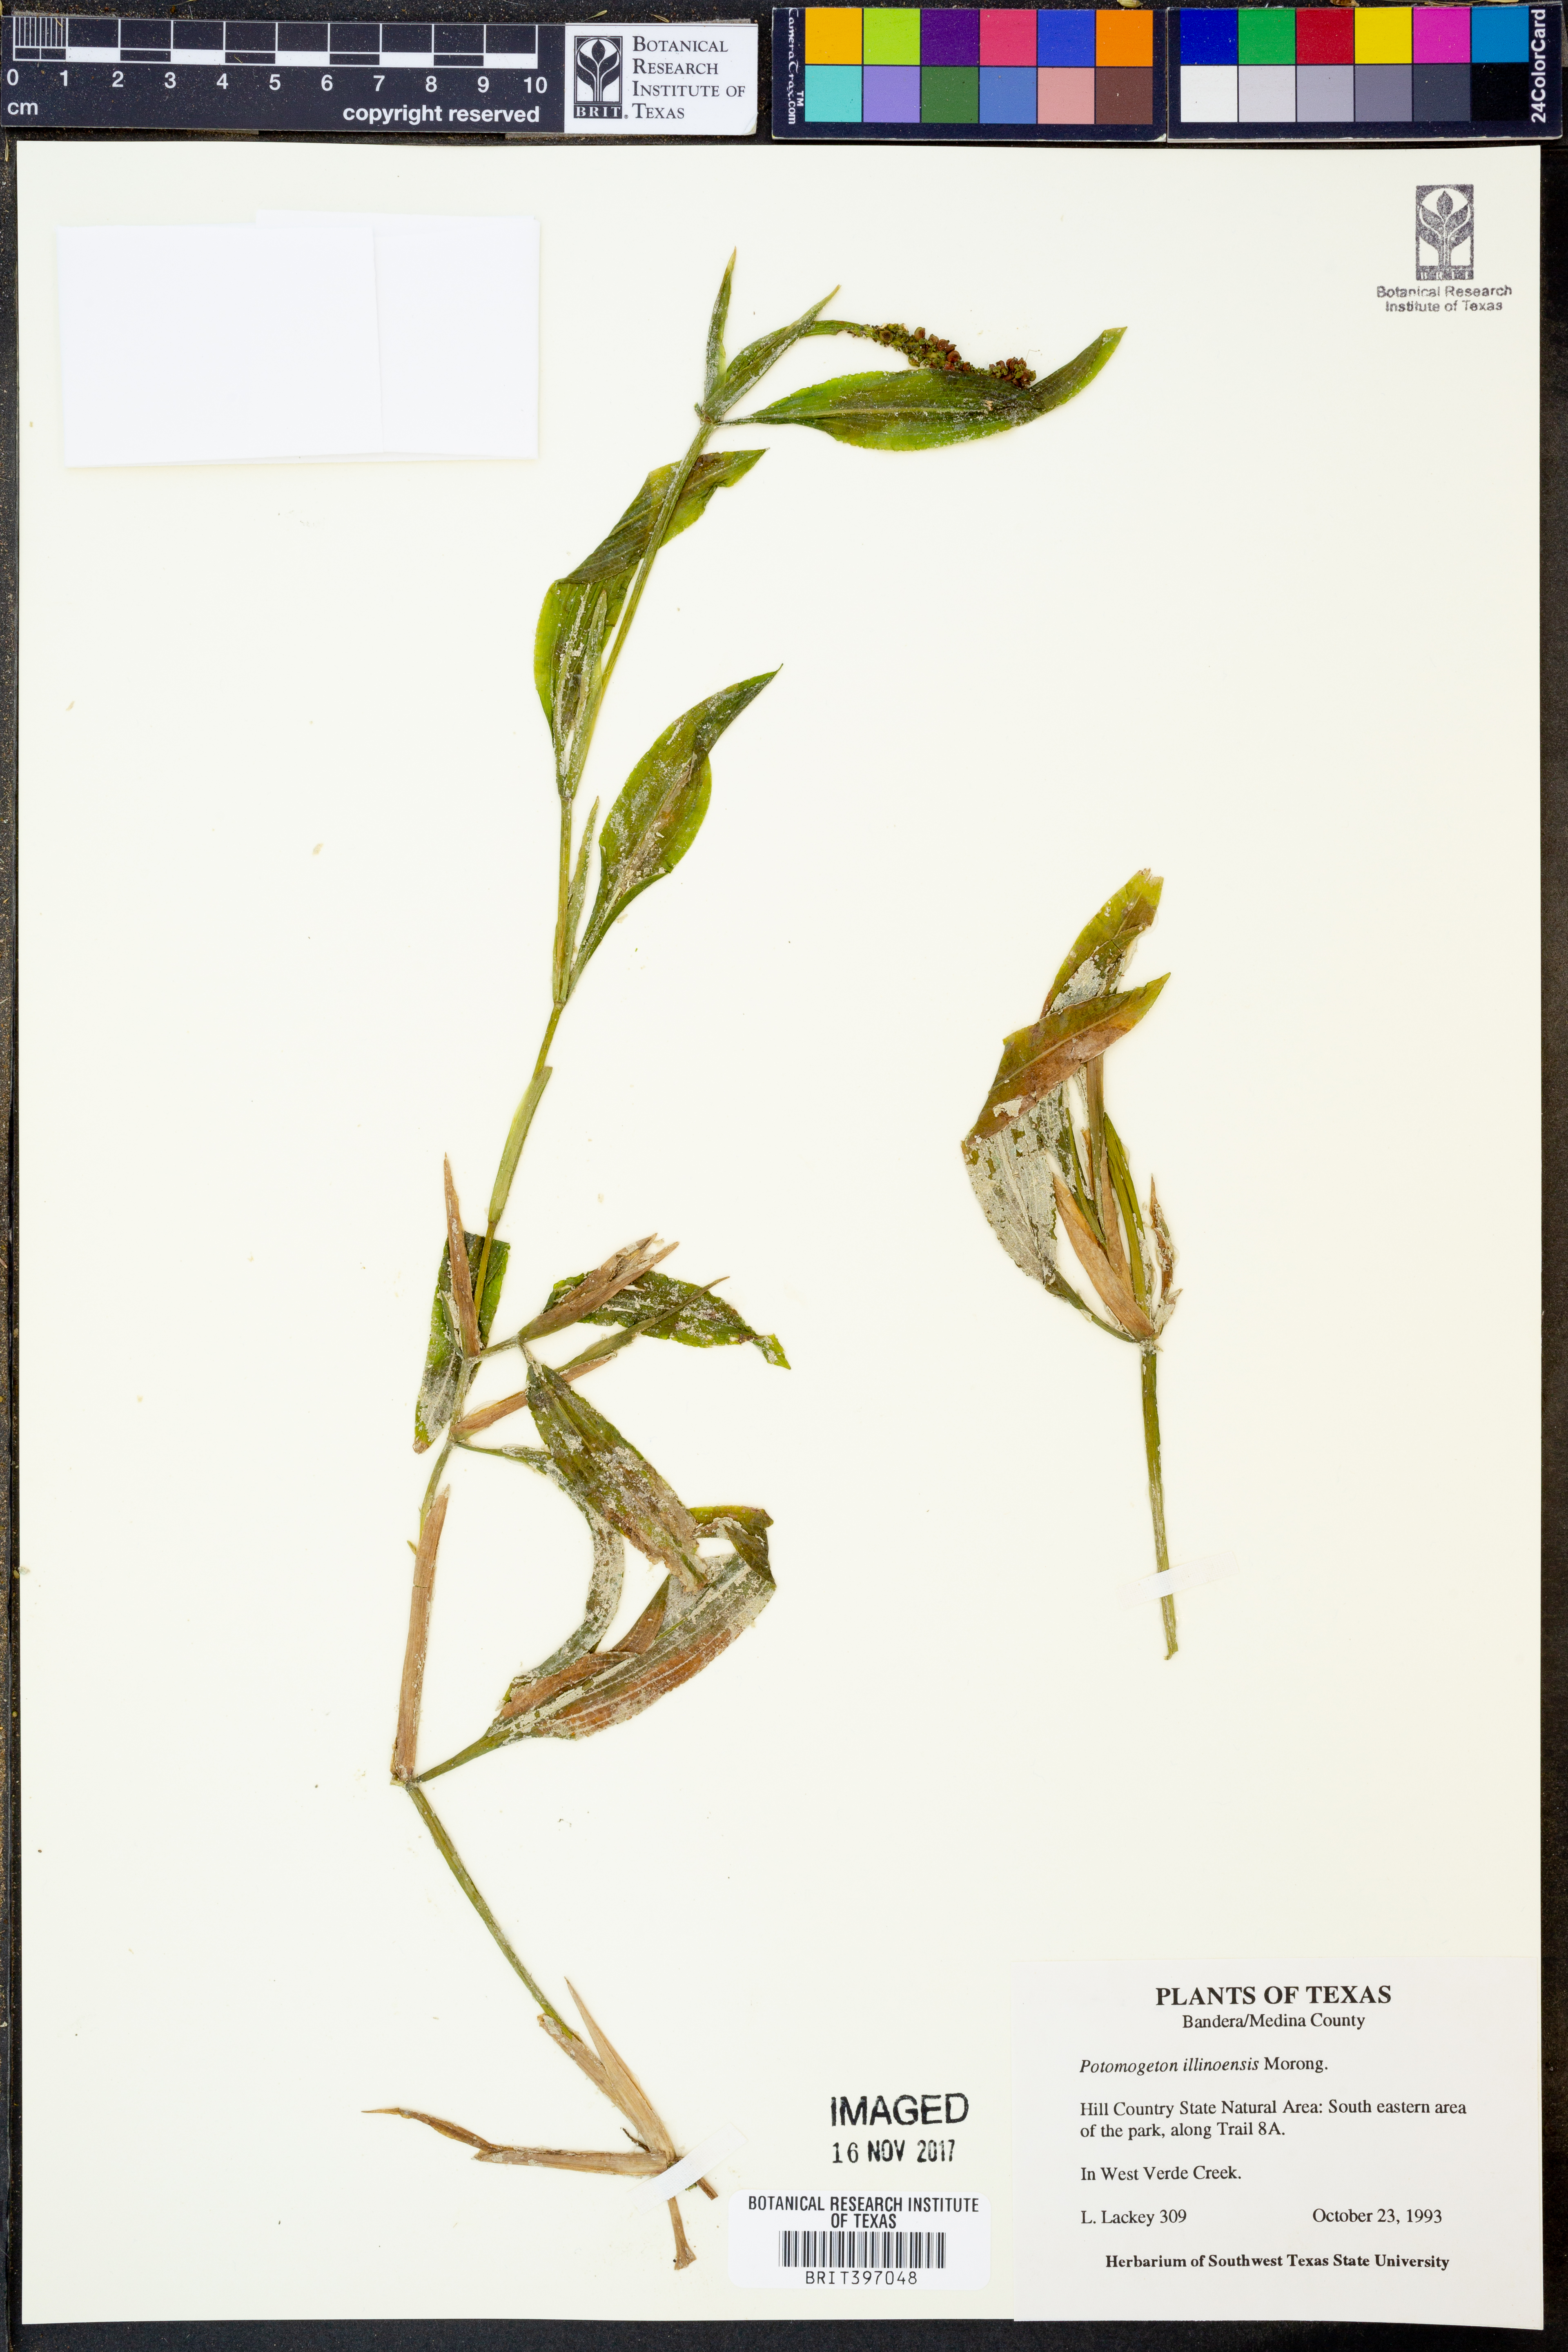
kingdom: Plantae
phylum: Tracheophyta
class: Liliopsida
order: Alismatales
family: Potamogetonaceae
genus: Potamogeton
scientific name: Potamogeton illinoensis
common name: Illinois pondweed
